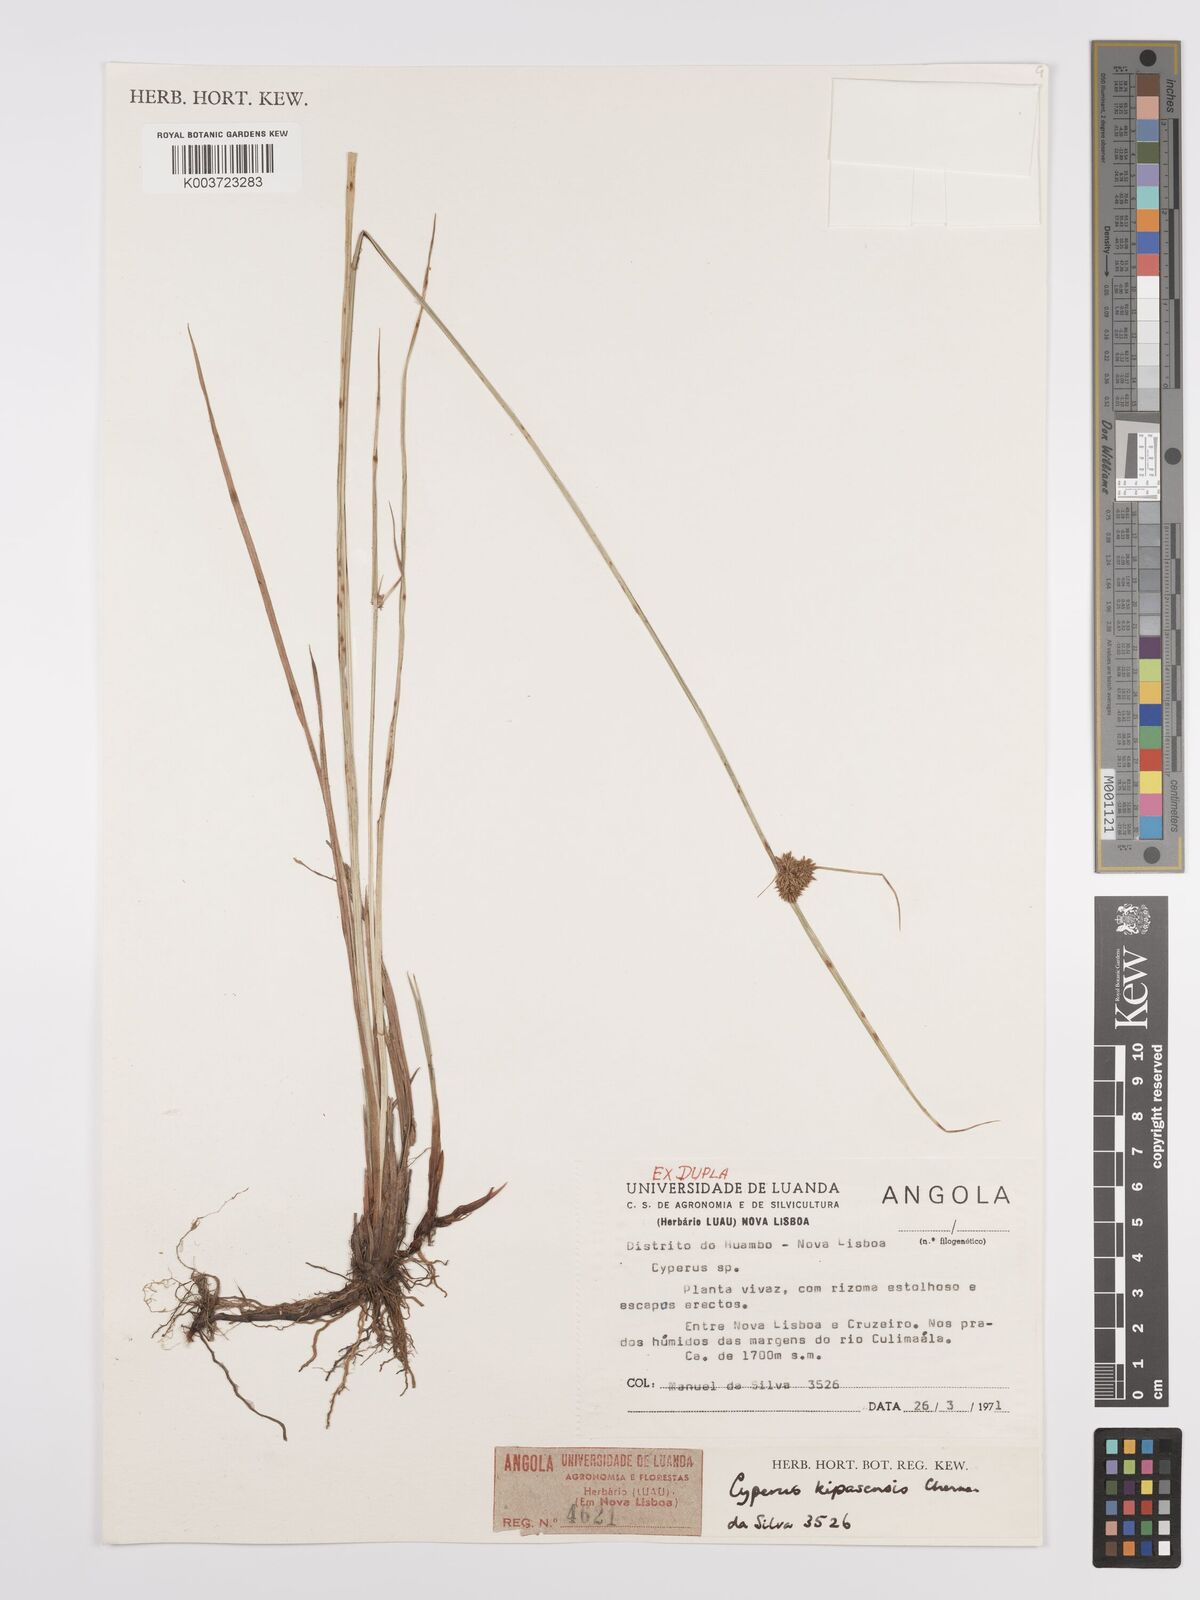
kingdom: Plantae
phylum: Tracheophyta
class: Liliopsida
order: Poales
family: Cyperaceae
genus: Cyperus
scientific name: Cyperus kipasensis
